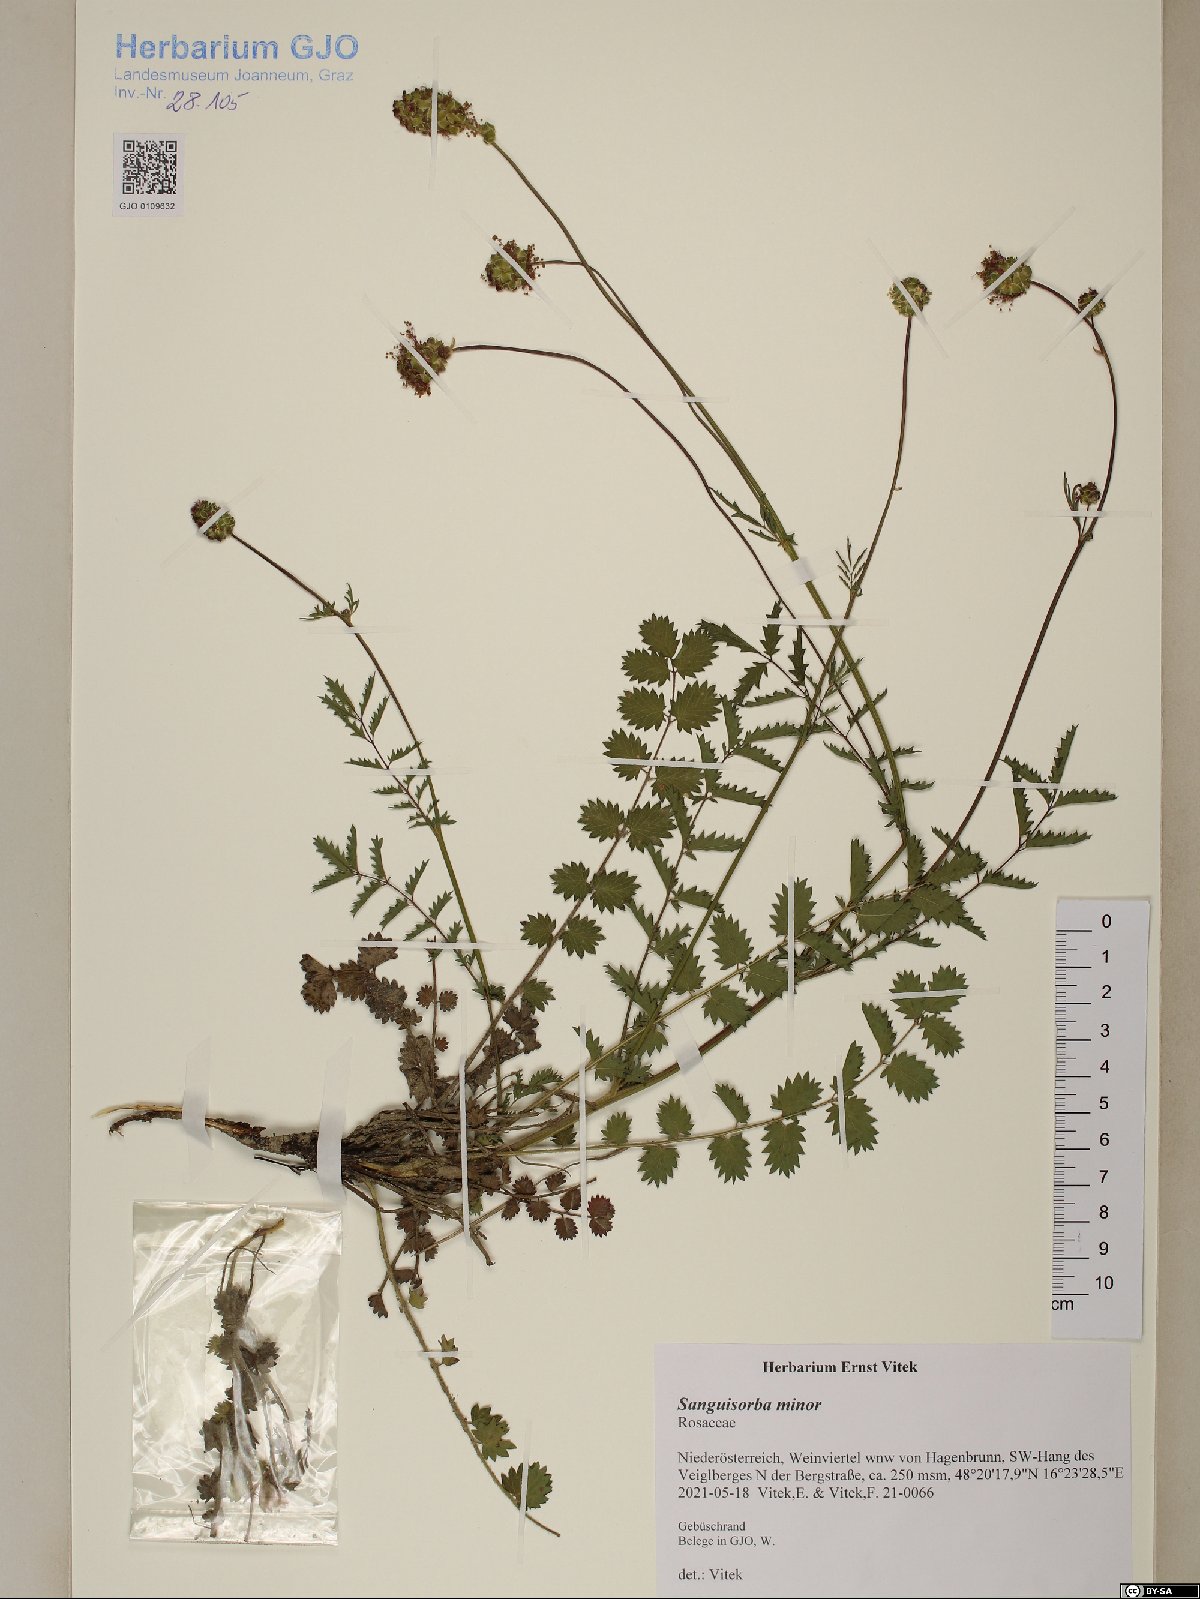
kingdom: Plantae
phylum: Tracheophyta
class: Magnoliopsida
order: Rosales
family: Rosaceae
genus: Poterium
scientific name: Poterium sanguisorba
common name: Salad burnet
